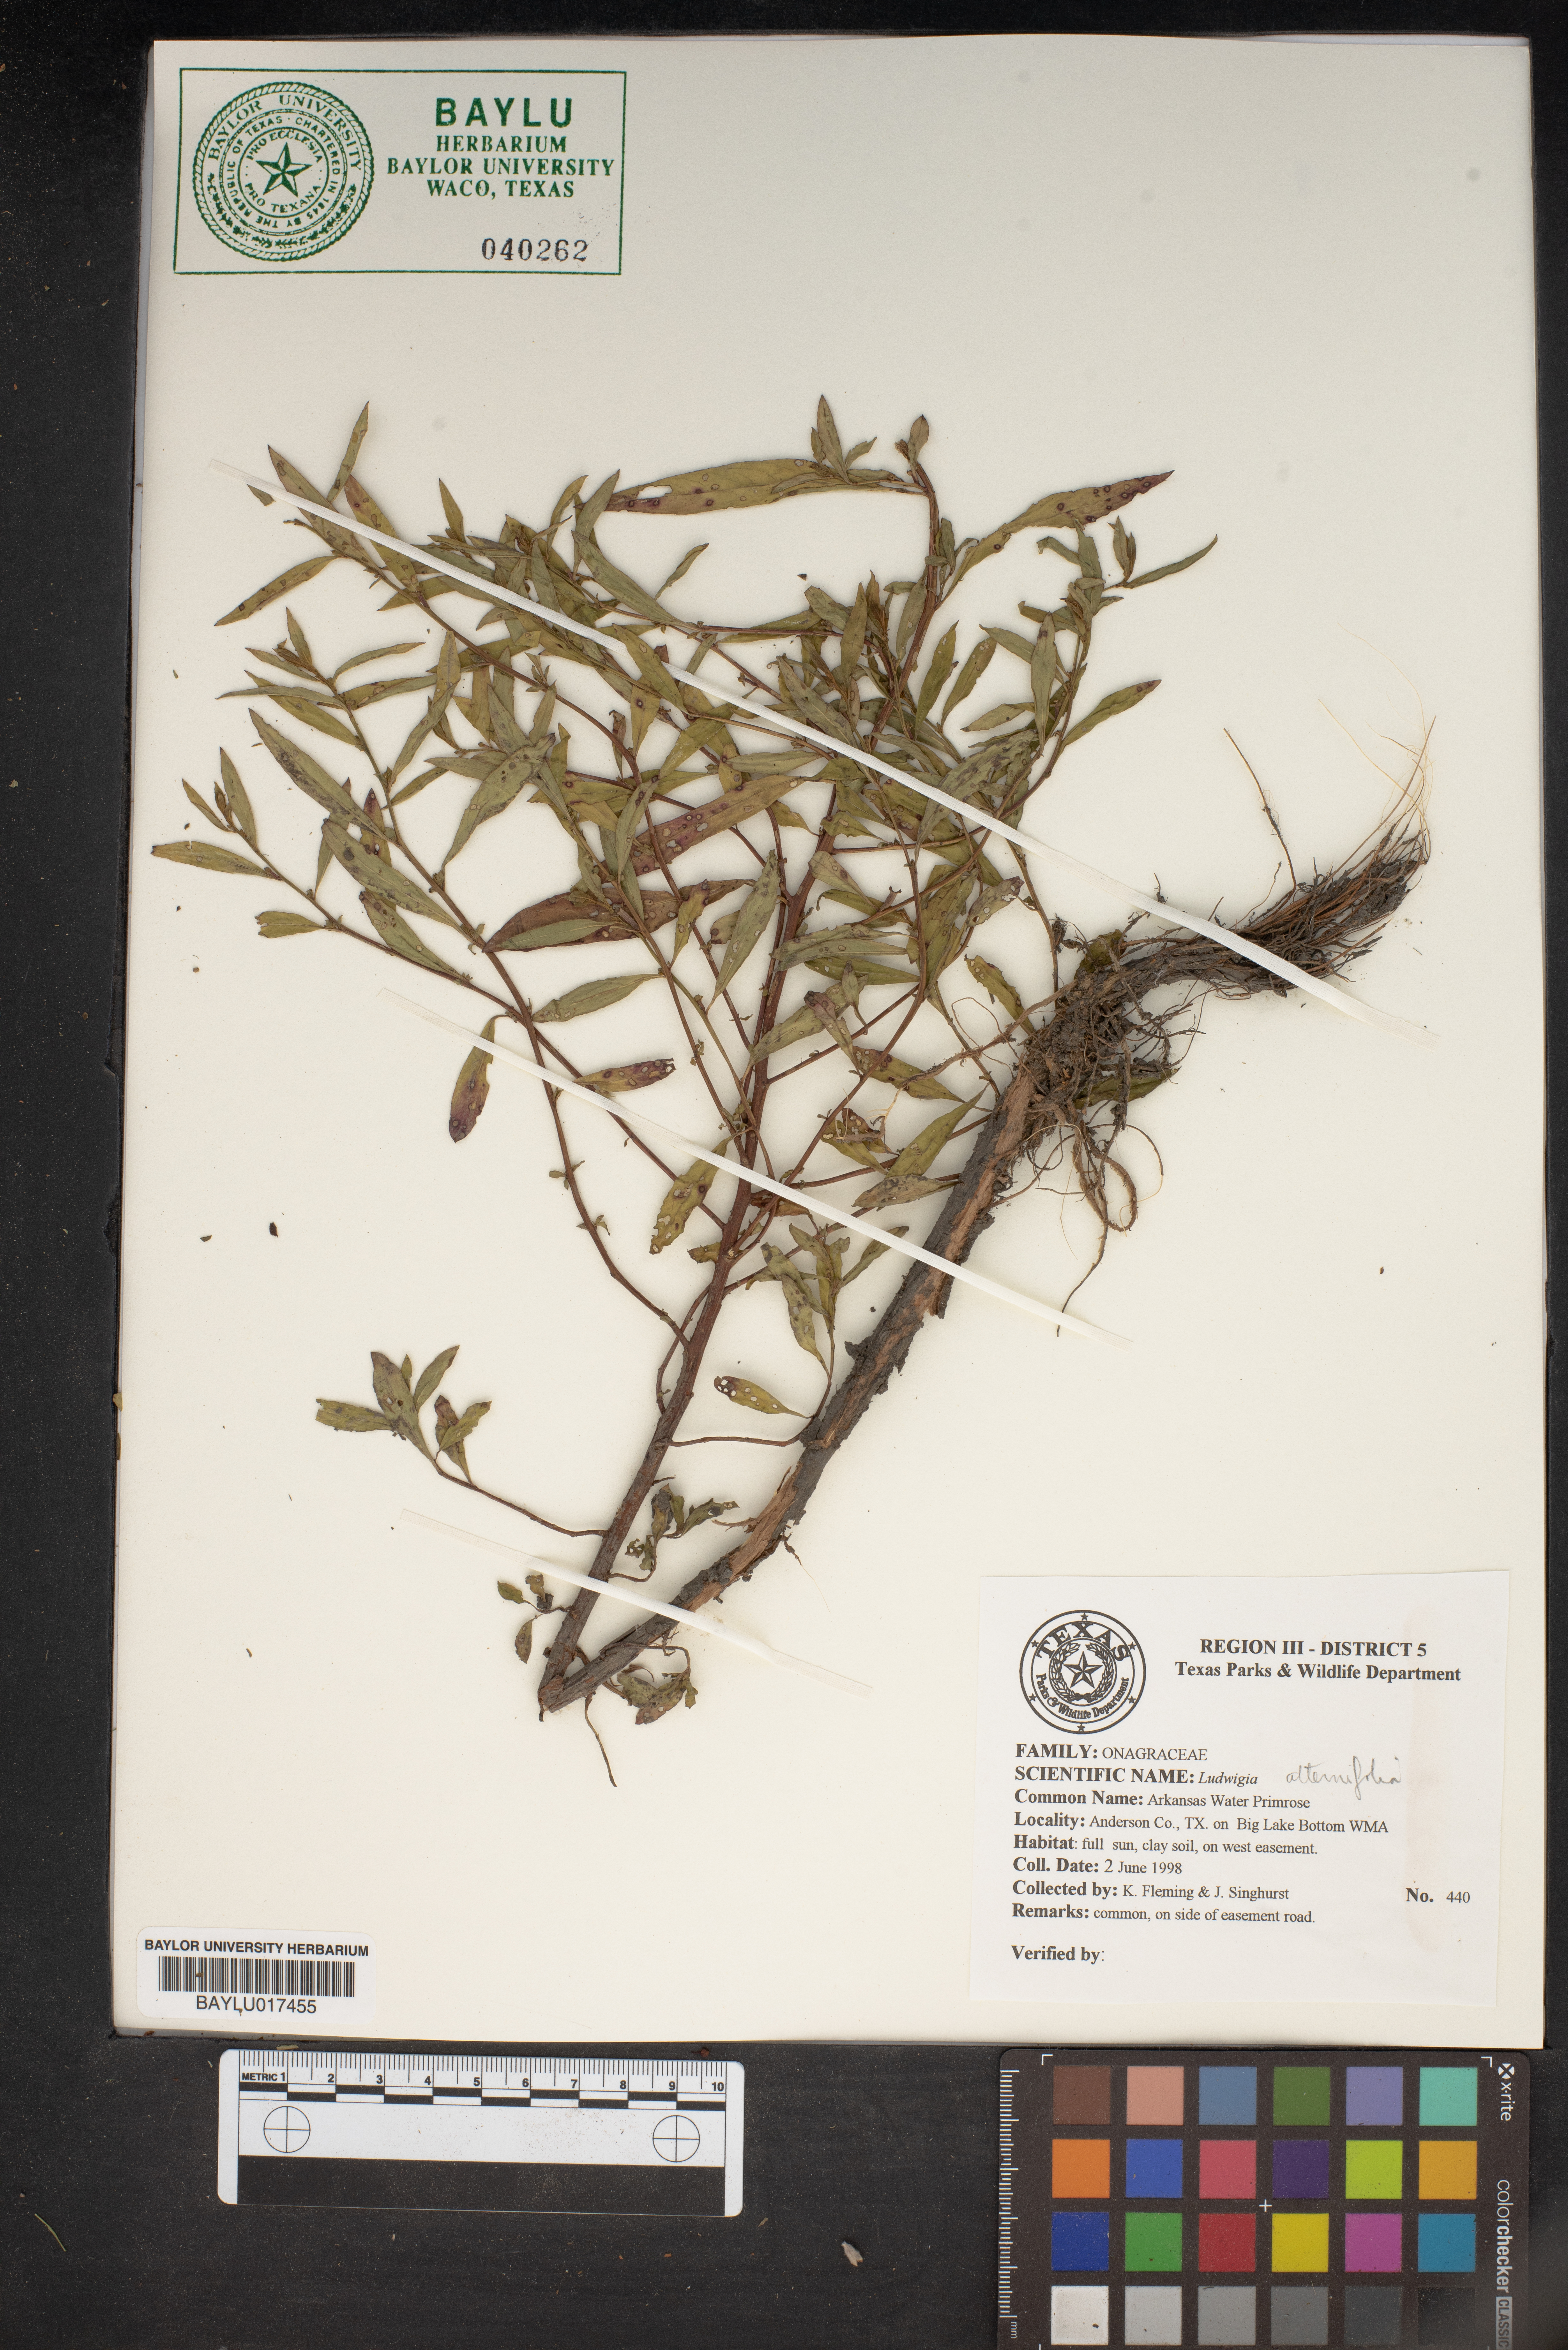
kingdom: Plantae
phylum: Tracheophyta
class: Magnoliopsida
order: Myrtales
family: Onagraceae
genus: Ludwigia
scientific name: Ludwigia alternifolia
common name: Rattlebox
